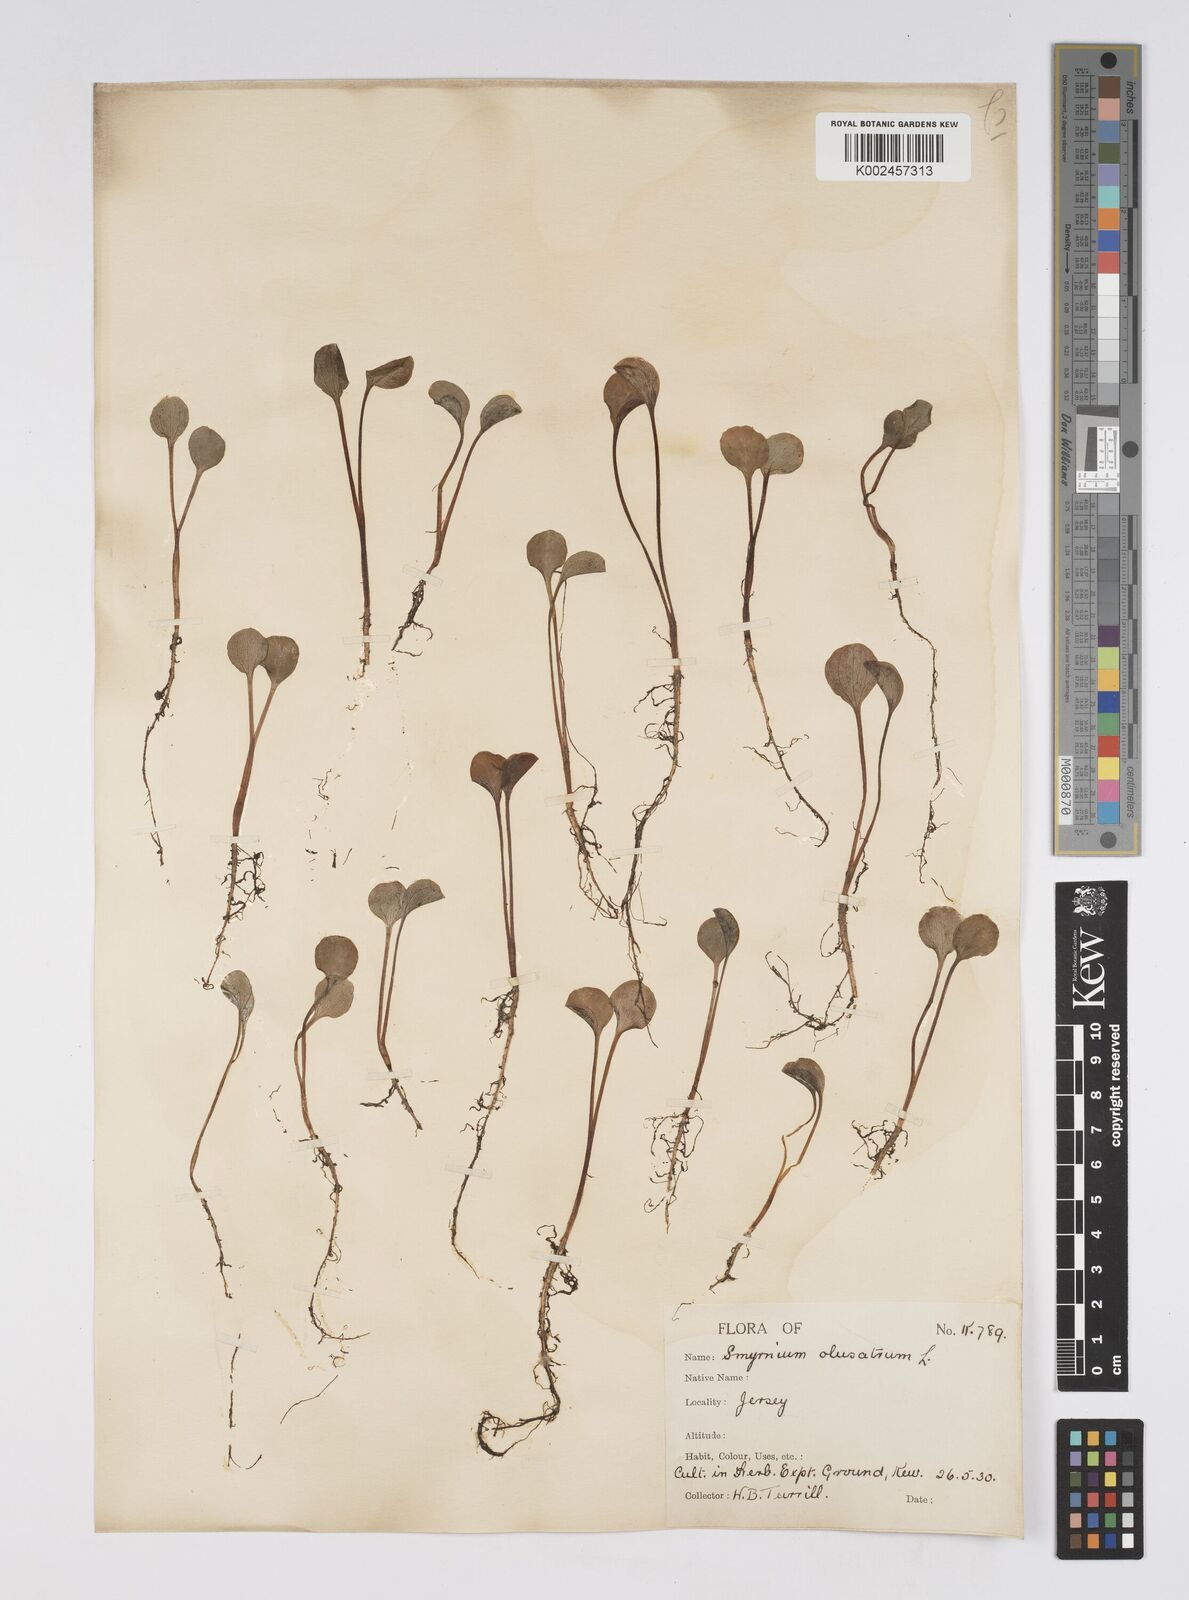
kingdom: Plantae
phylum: Tracheophyta
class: Magnoliopsida
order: Apiales
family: Apiaceae
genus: Smyrnium
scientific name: Smyrnium olusatrum
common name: Alexanders
